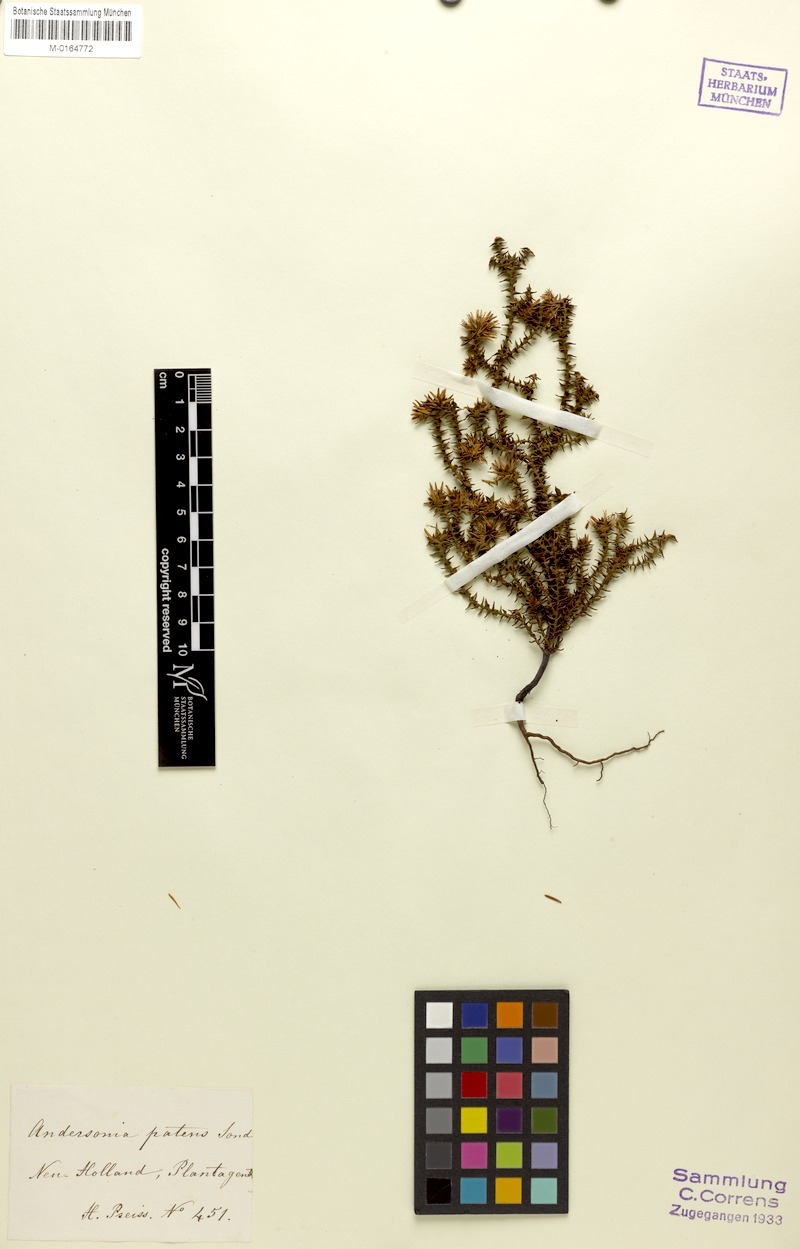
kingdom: Plantae
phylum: Tracheophyta
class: Magnoliopsida
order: Ericales
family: Ericaceae
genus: Andersonia
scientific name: Andersonia sprengelioides
